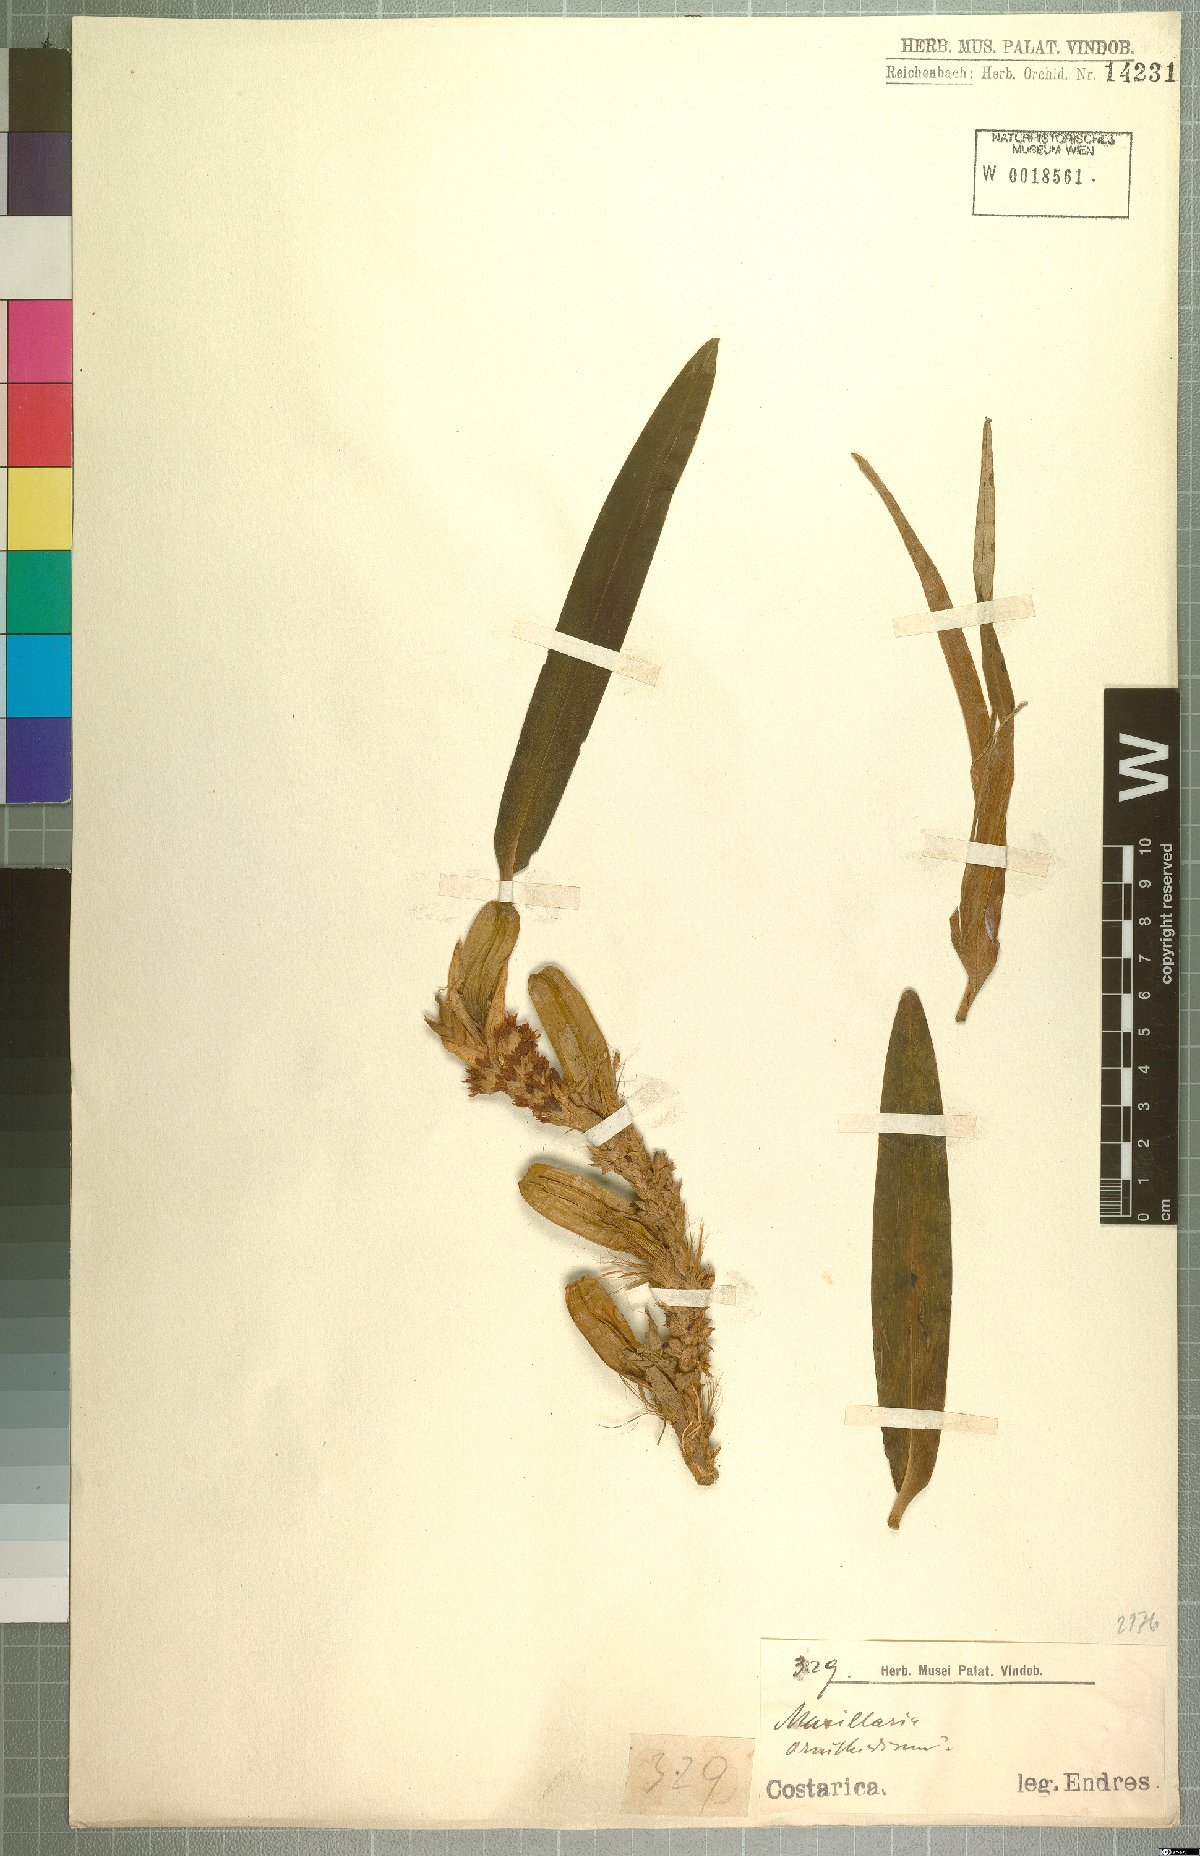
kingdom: Plantae
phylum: Tracheophyta
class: Liliopsida
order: Asparagales
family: Orchidaceae
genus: Maxillaria
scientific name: Maxillaria
